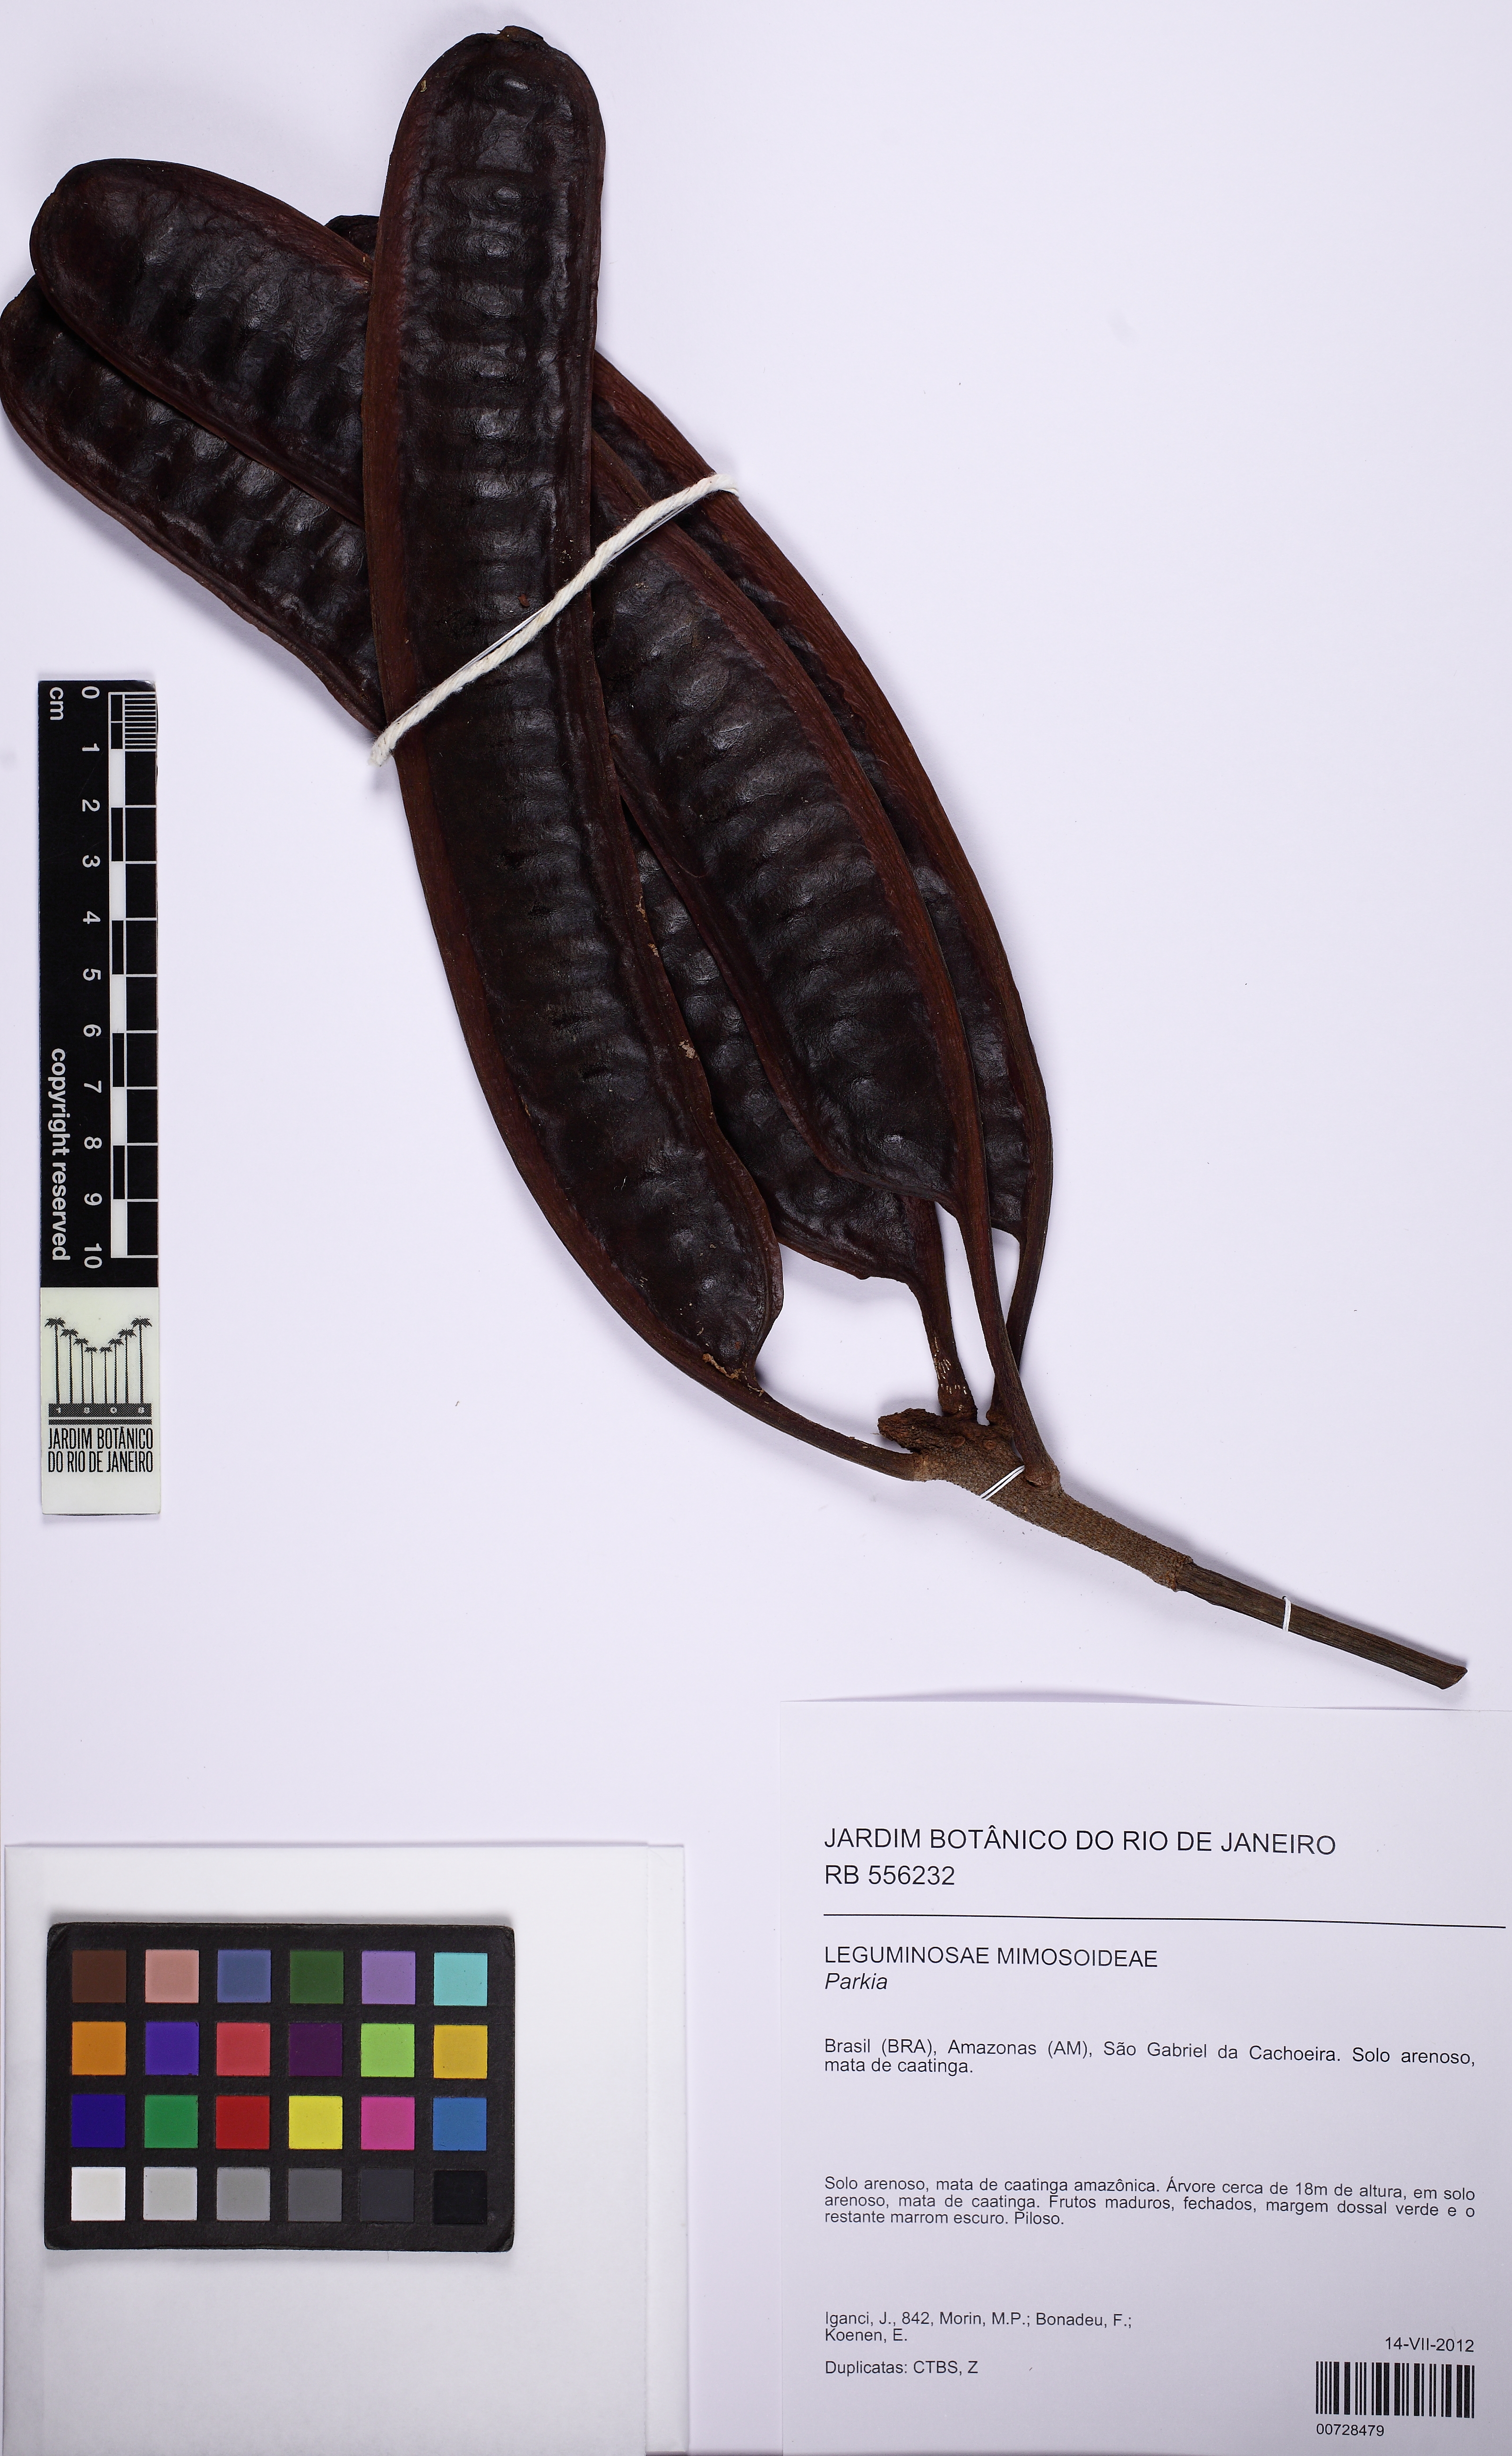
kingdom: Plantae
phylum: Tracheophyta
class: Magnoliopsida
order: Fabales
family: Fabaceae
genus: Parkia
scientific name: Parkia
